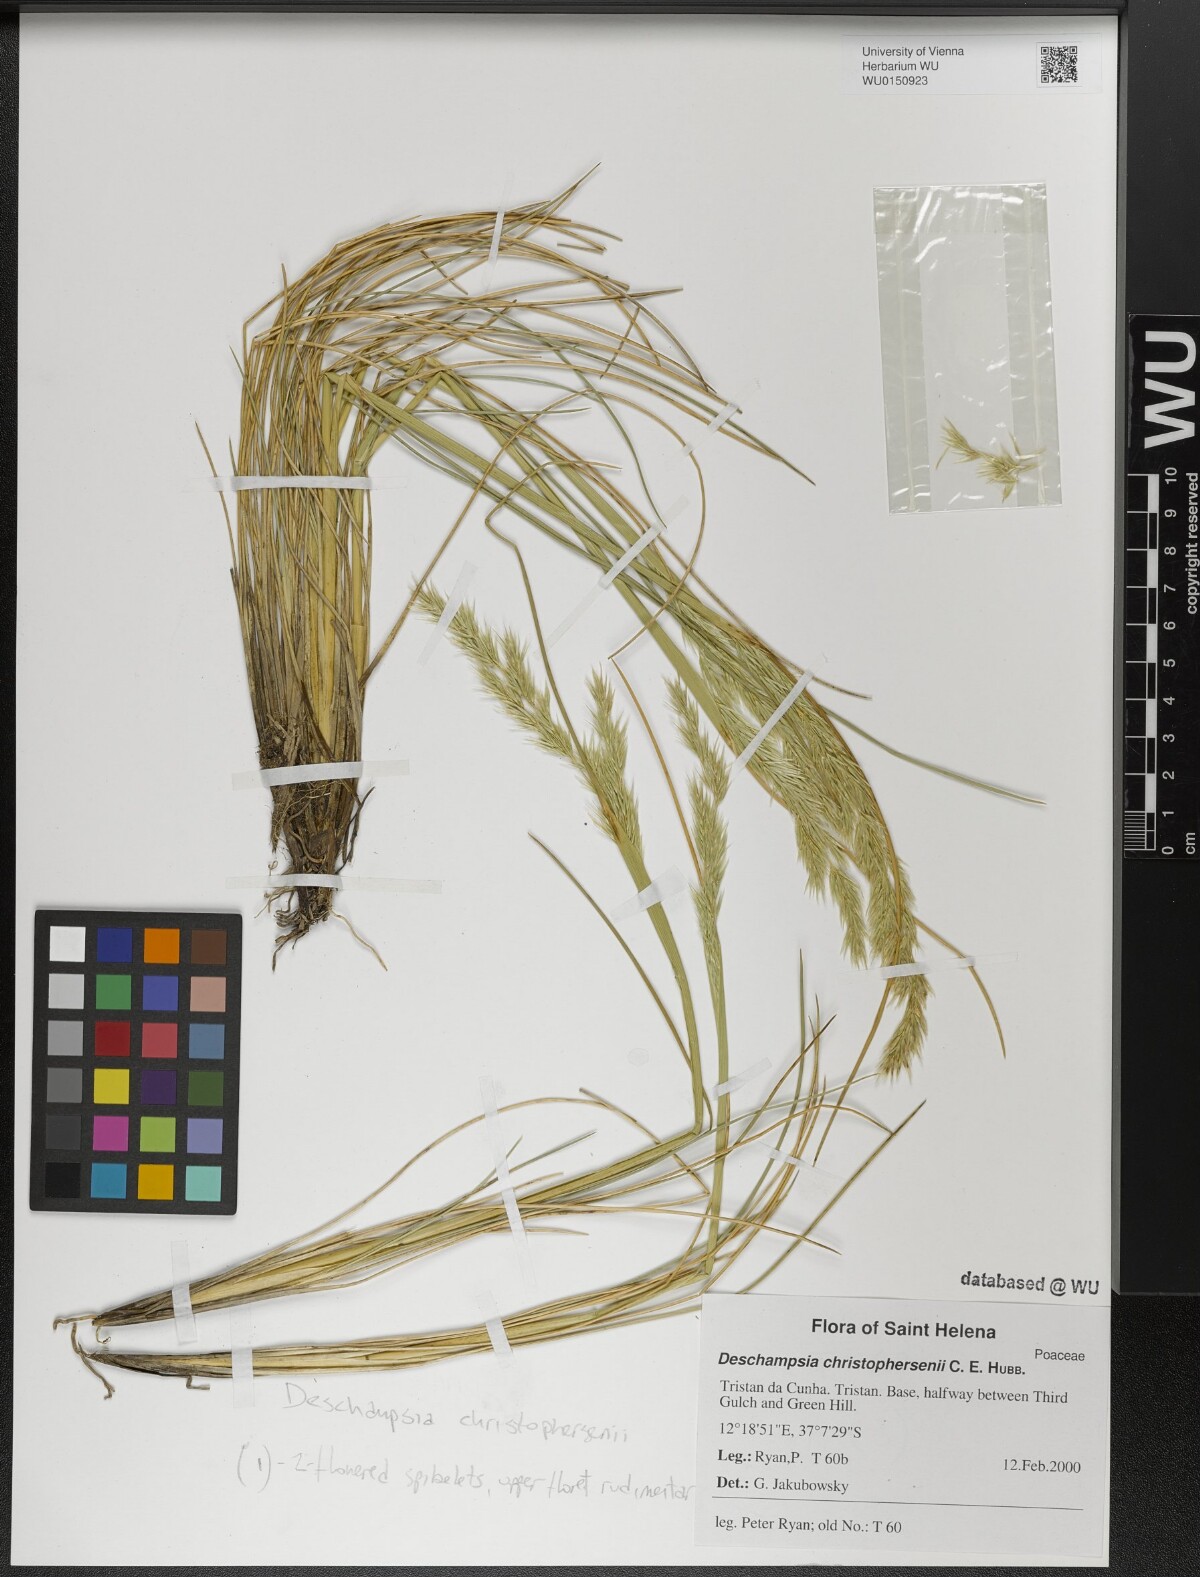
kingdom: Plantae
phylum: Tracheophyta
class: Liliopsida
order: Poales
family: Poaceae
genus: Deschampsia
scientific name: Deschampsia christophersenii
